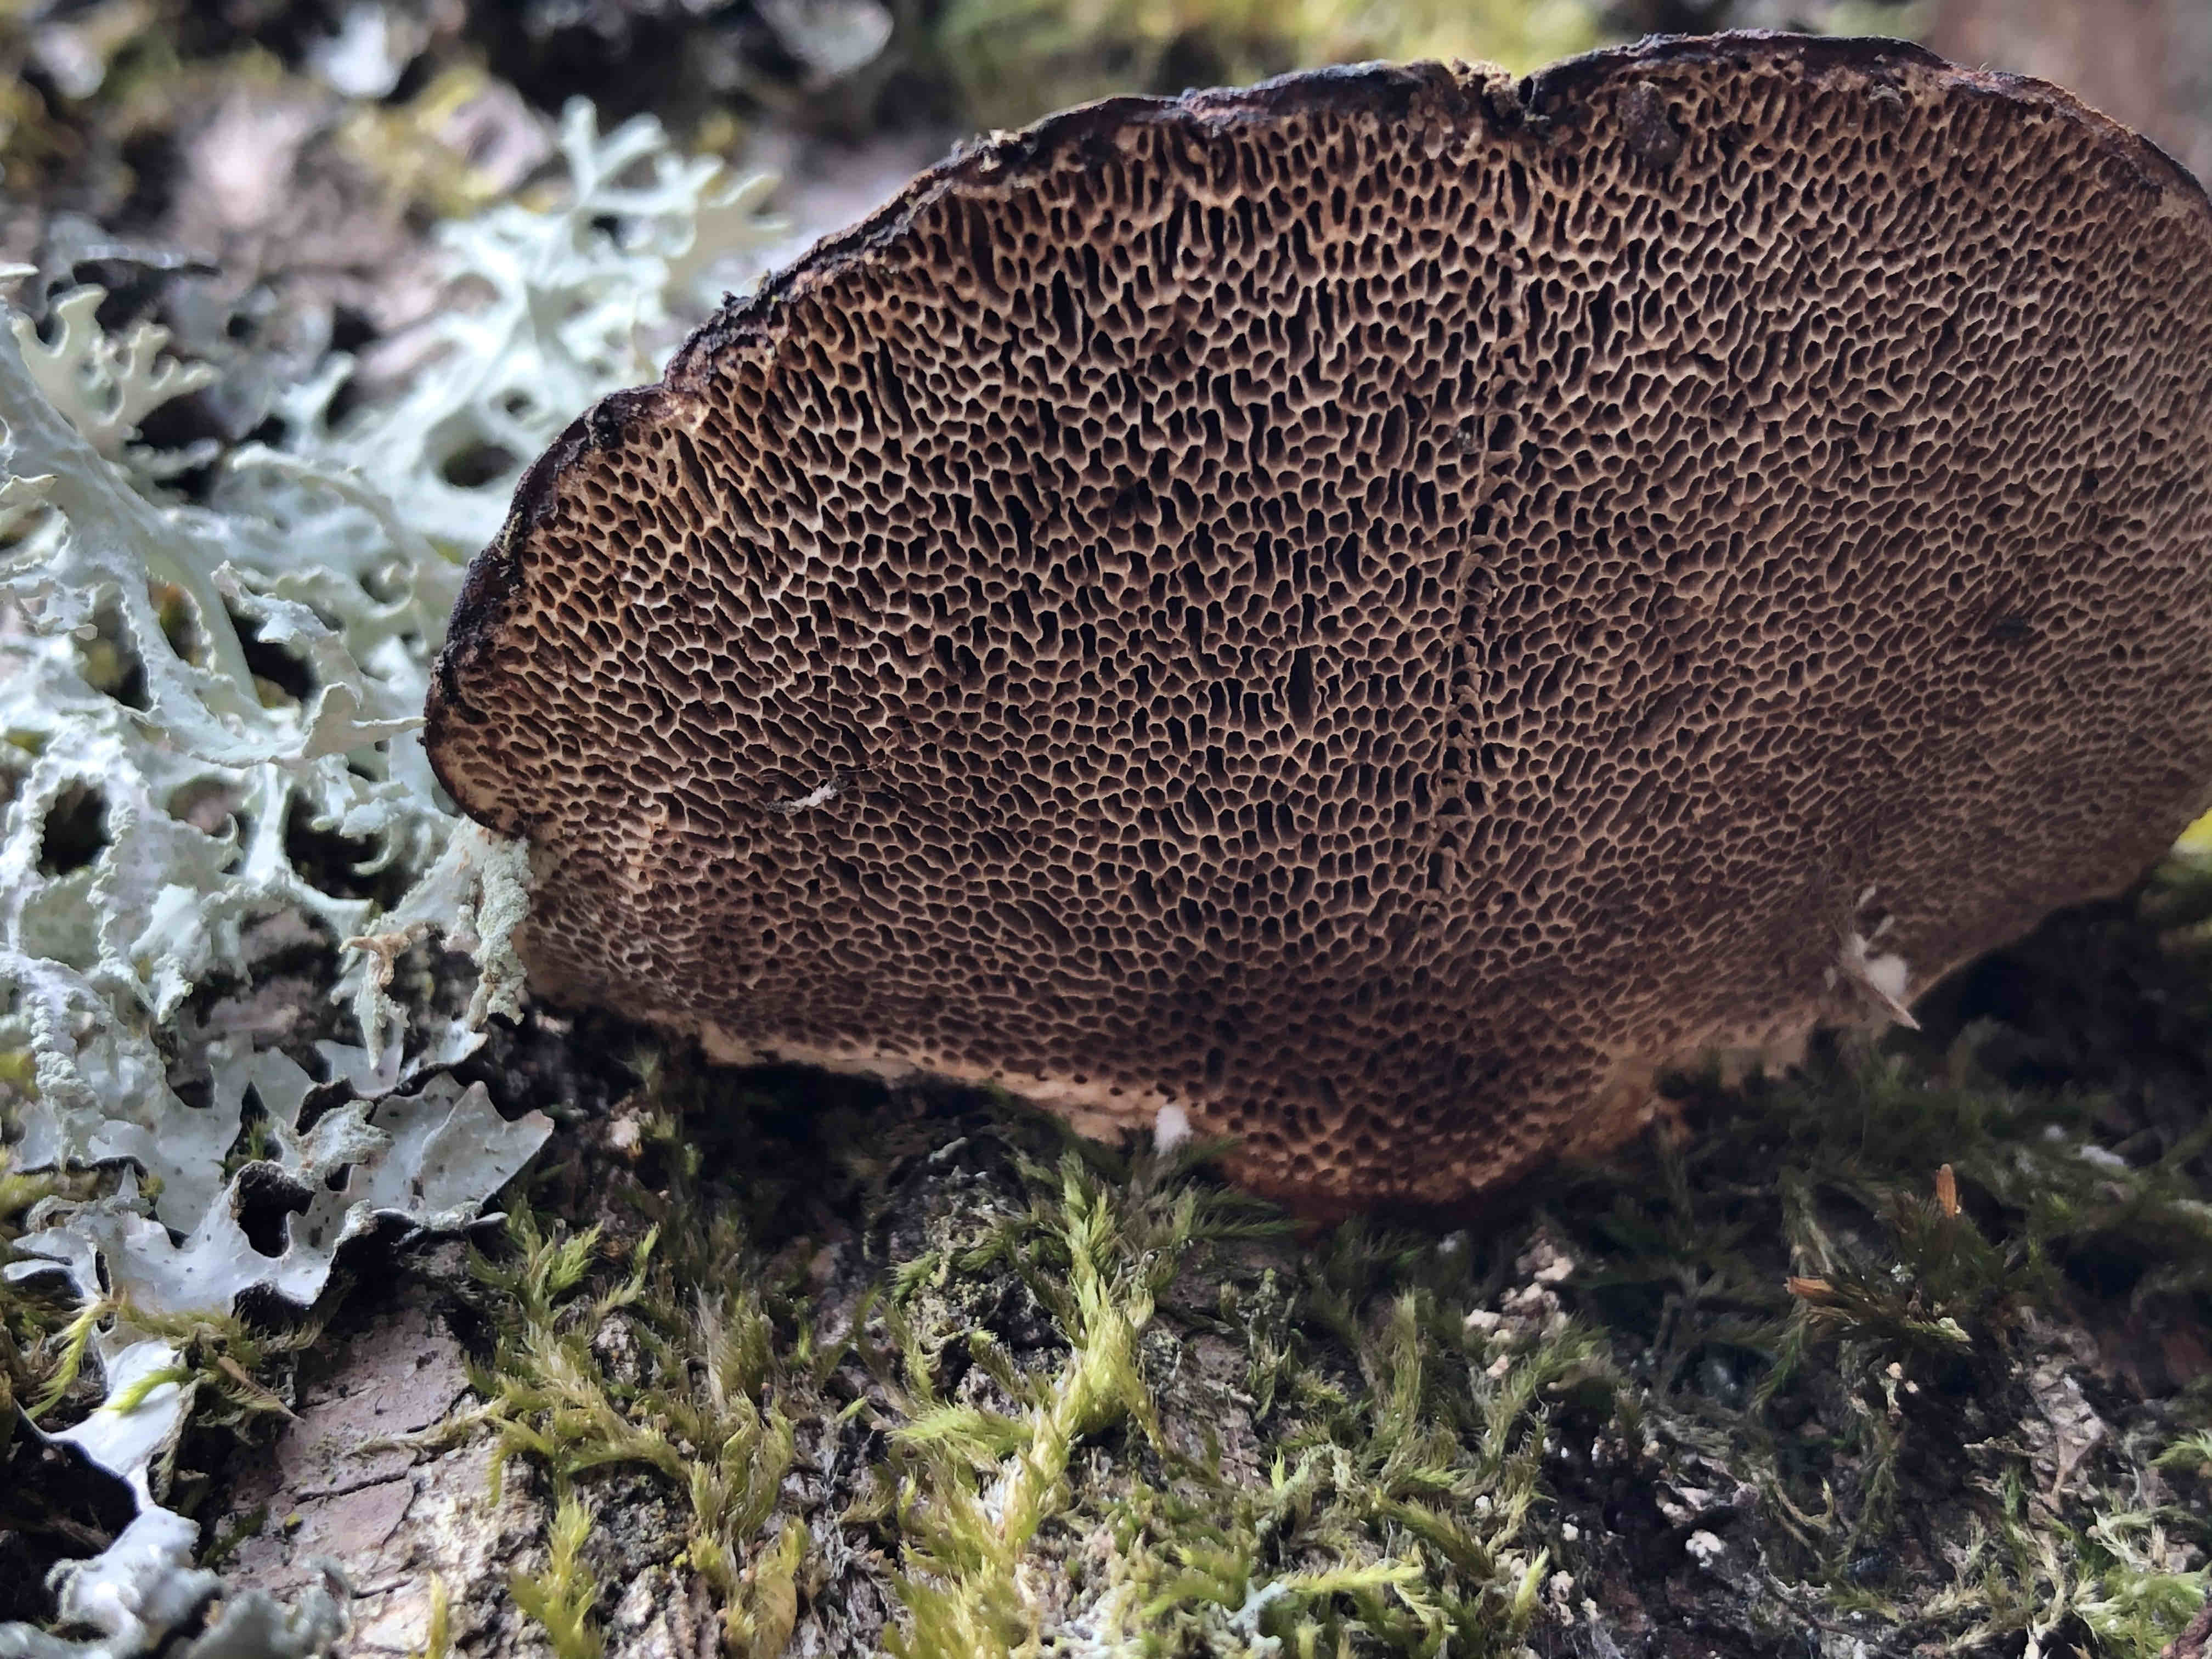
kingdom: Fungi
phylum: Basidiomycota
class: Agaricomycetes
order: Polyporales
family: Polyporaceae
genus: Daedaleopsis
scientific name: Daedaleopsis confragosa
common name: rødmende læderporesvamp
